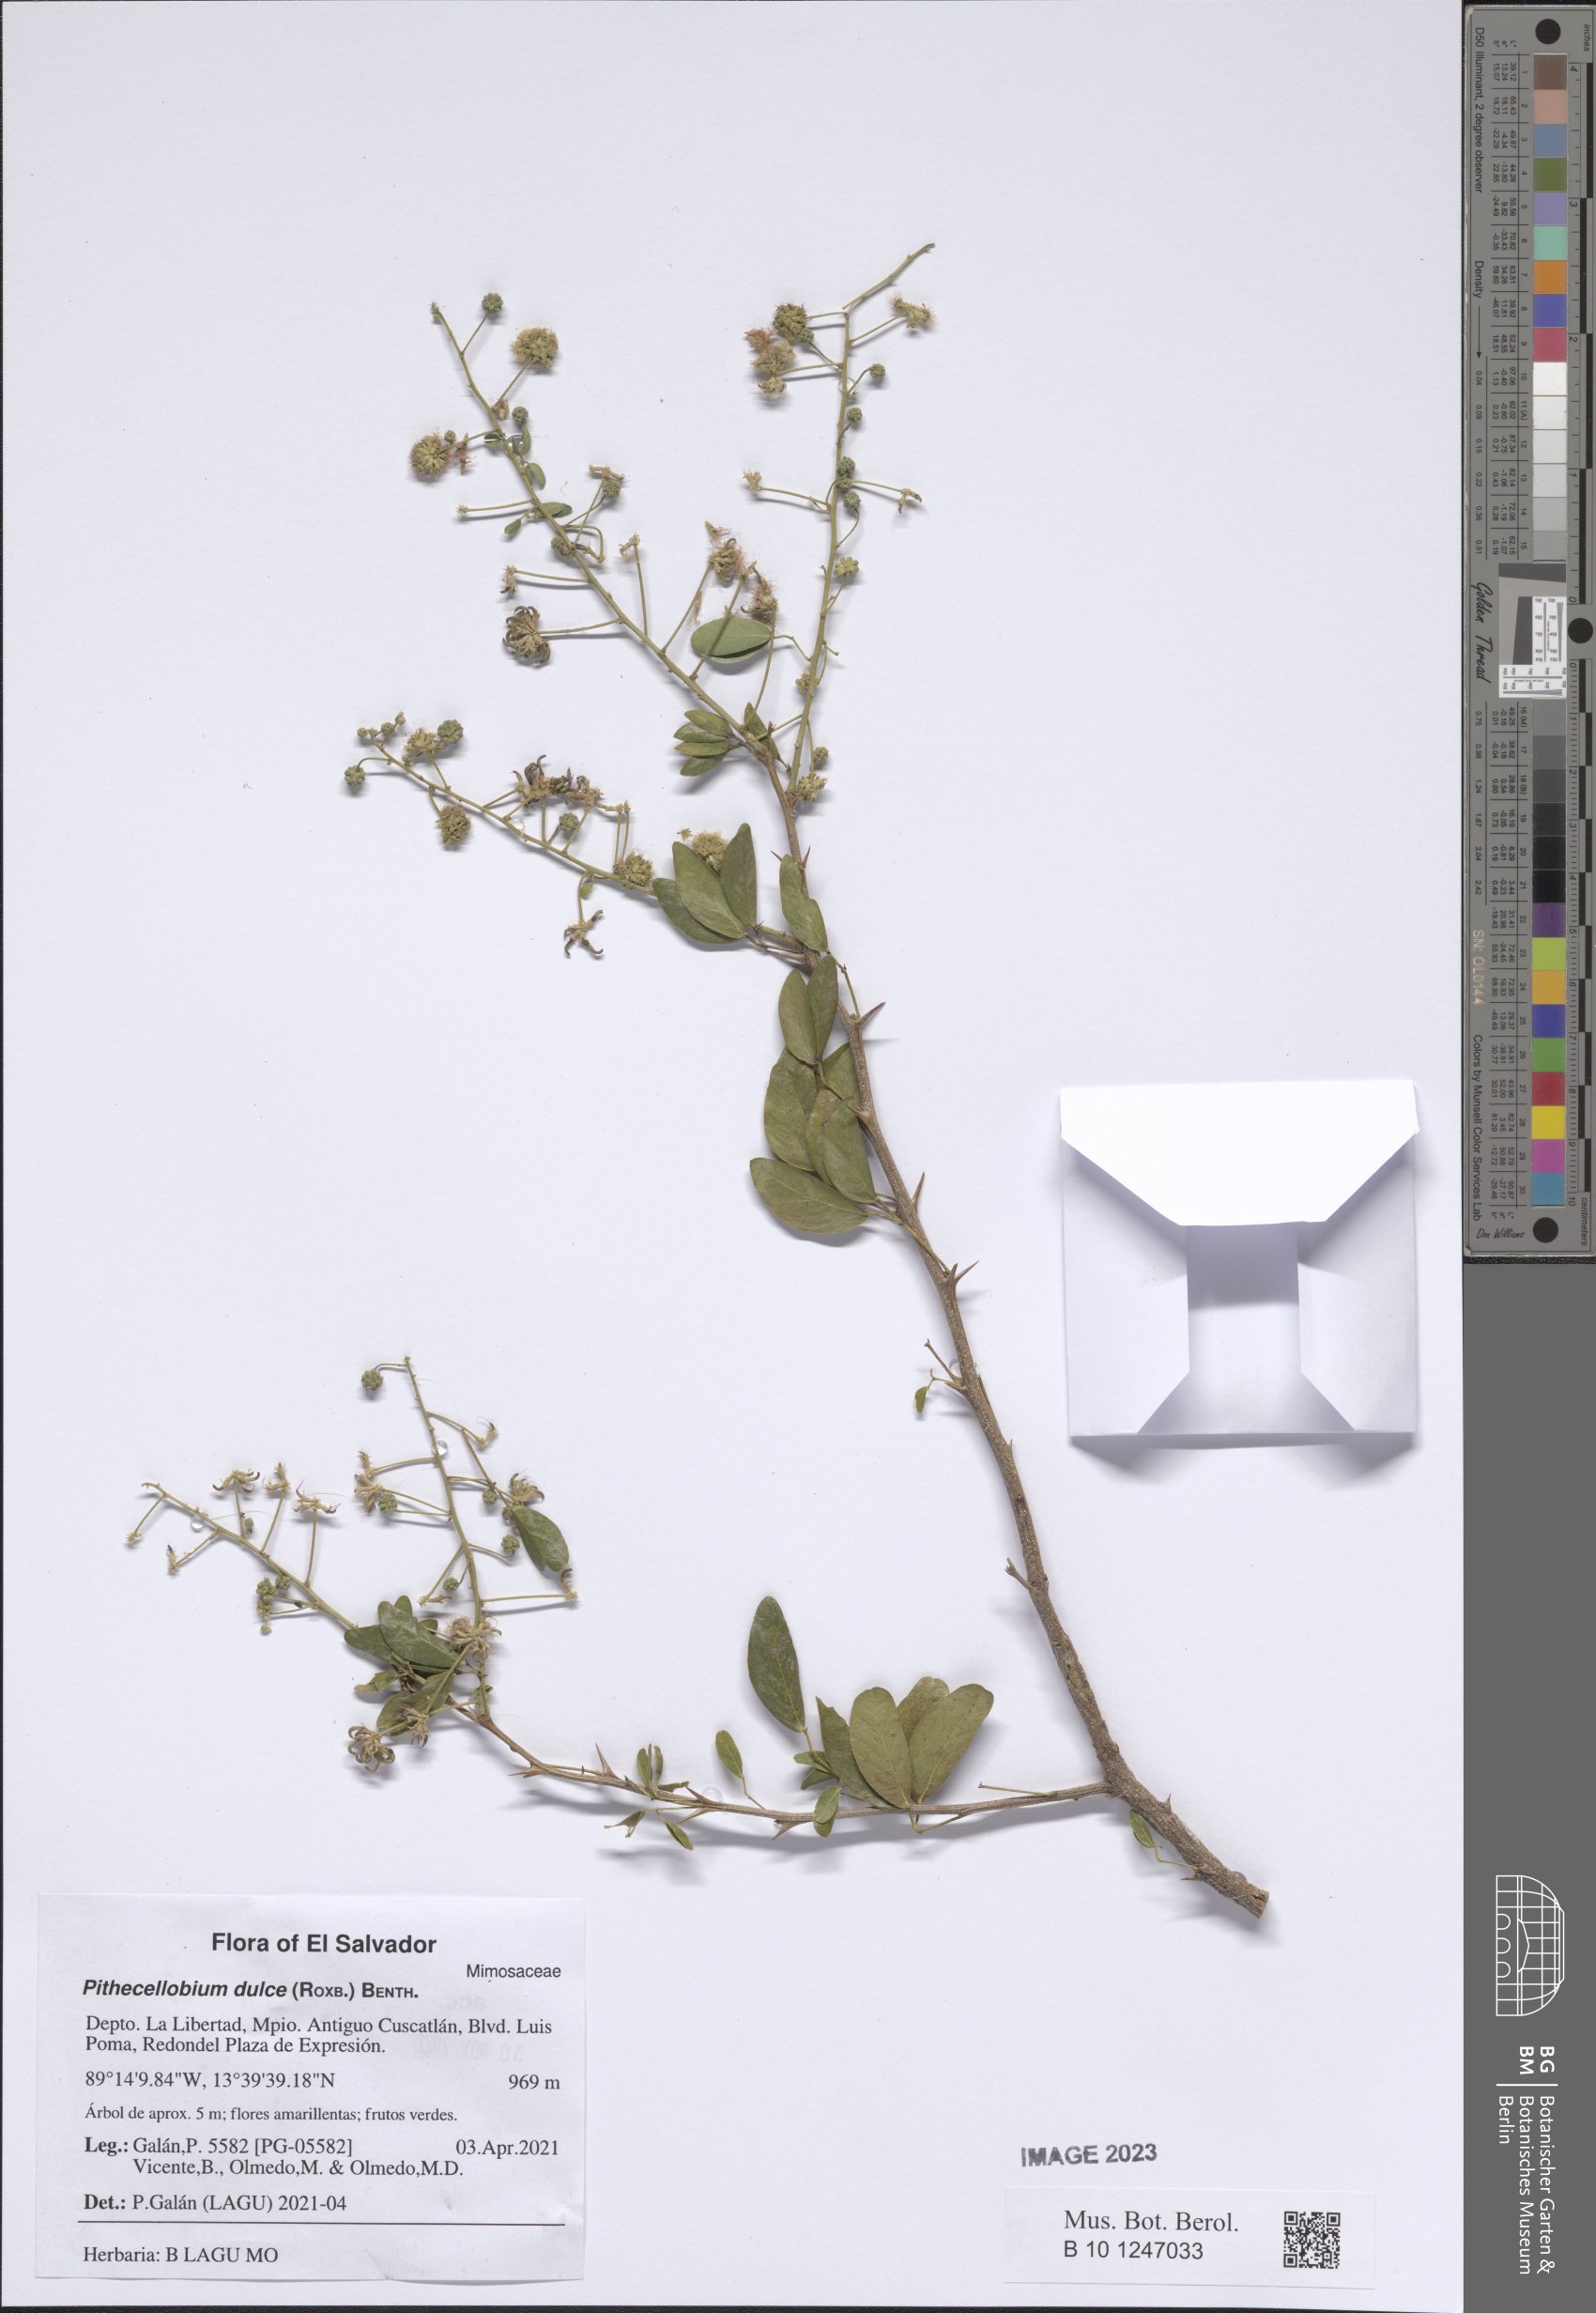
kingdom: Plantae
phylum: Tracheophyta
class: Magnoliopsida
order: Fabales
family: Fabaceae
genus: Pithecellobium
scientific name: Pithecellobium dulce
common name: Monkeypod
